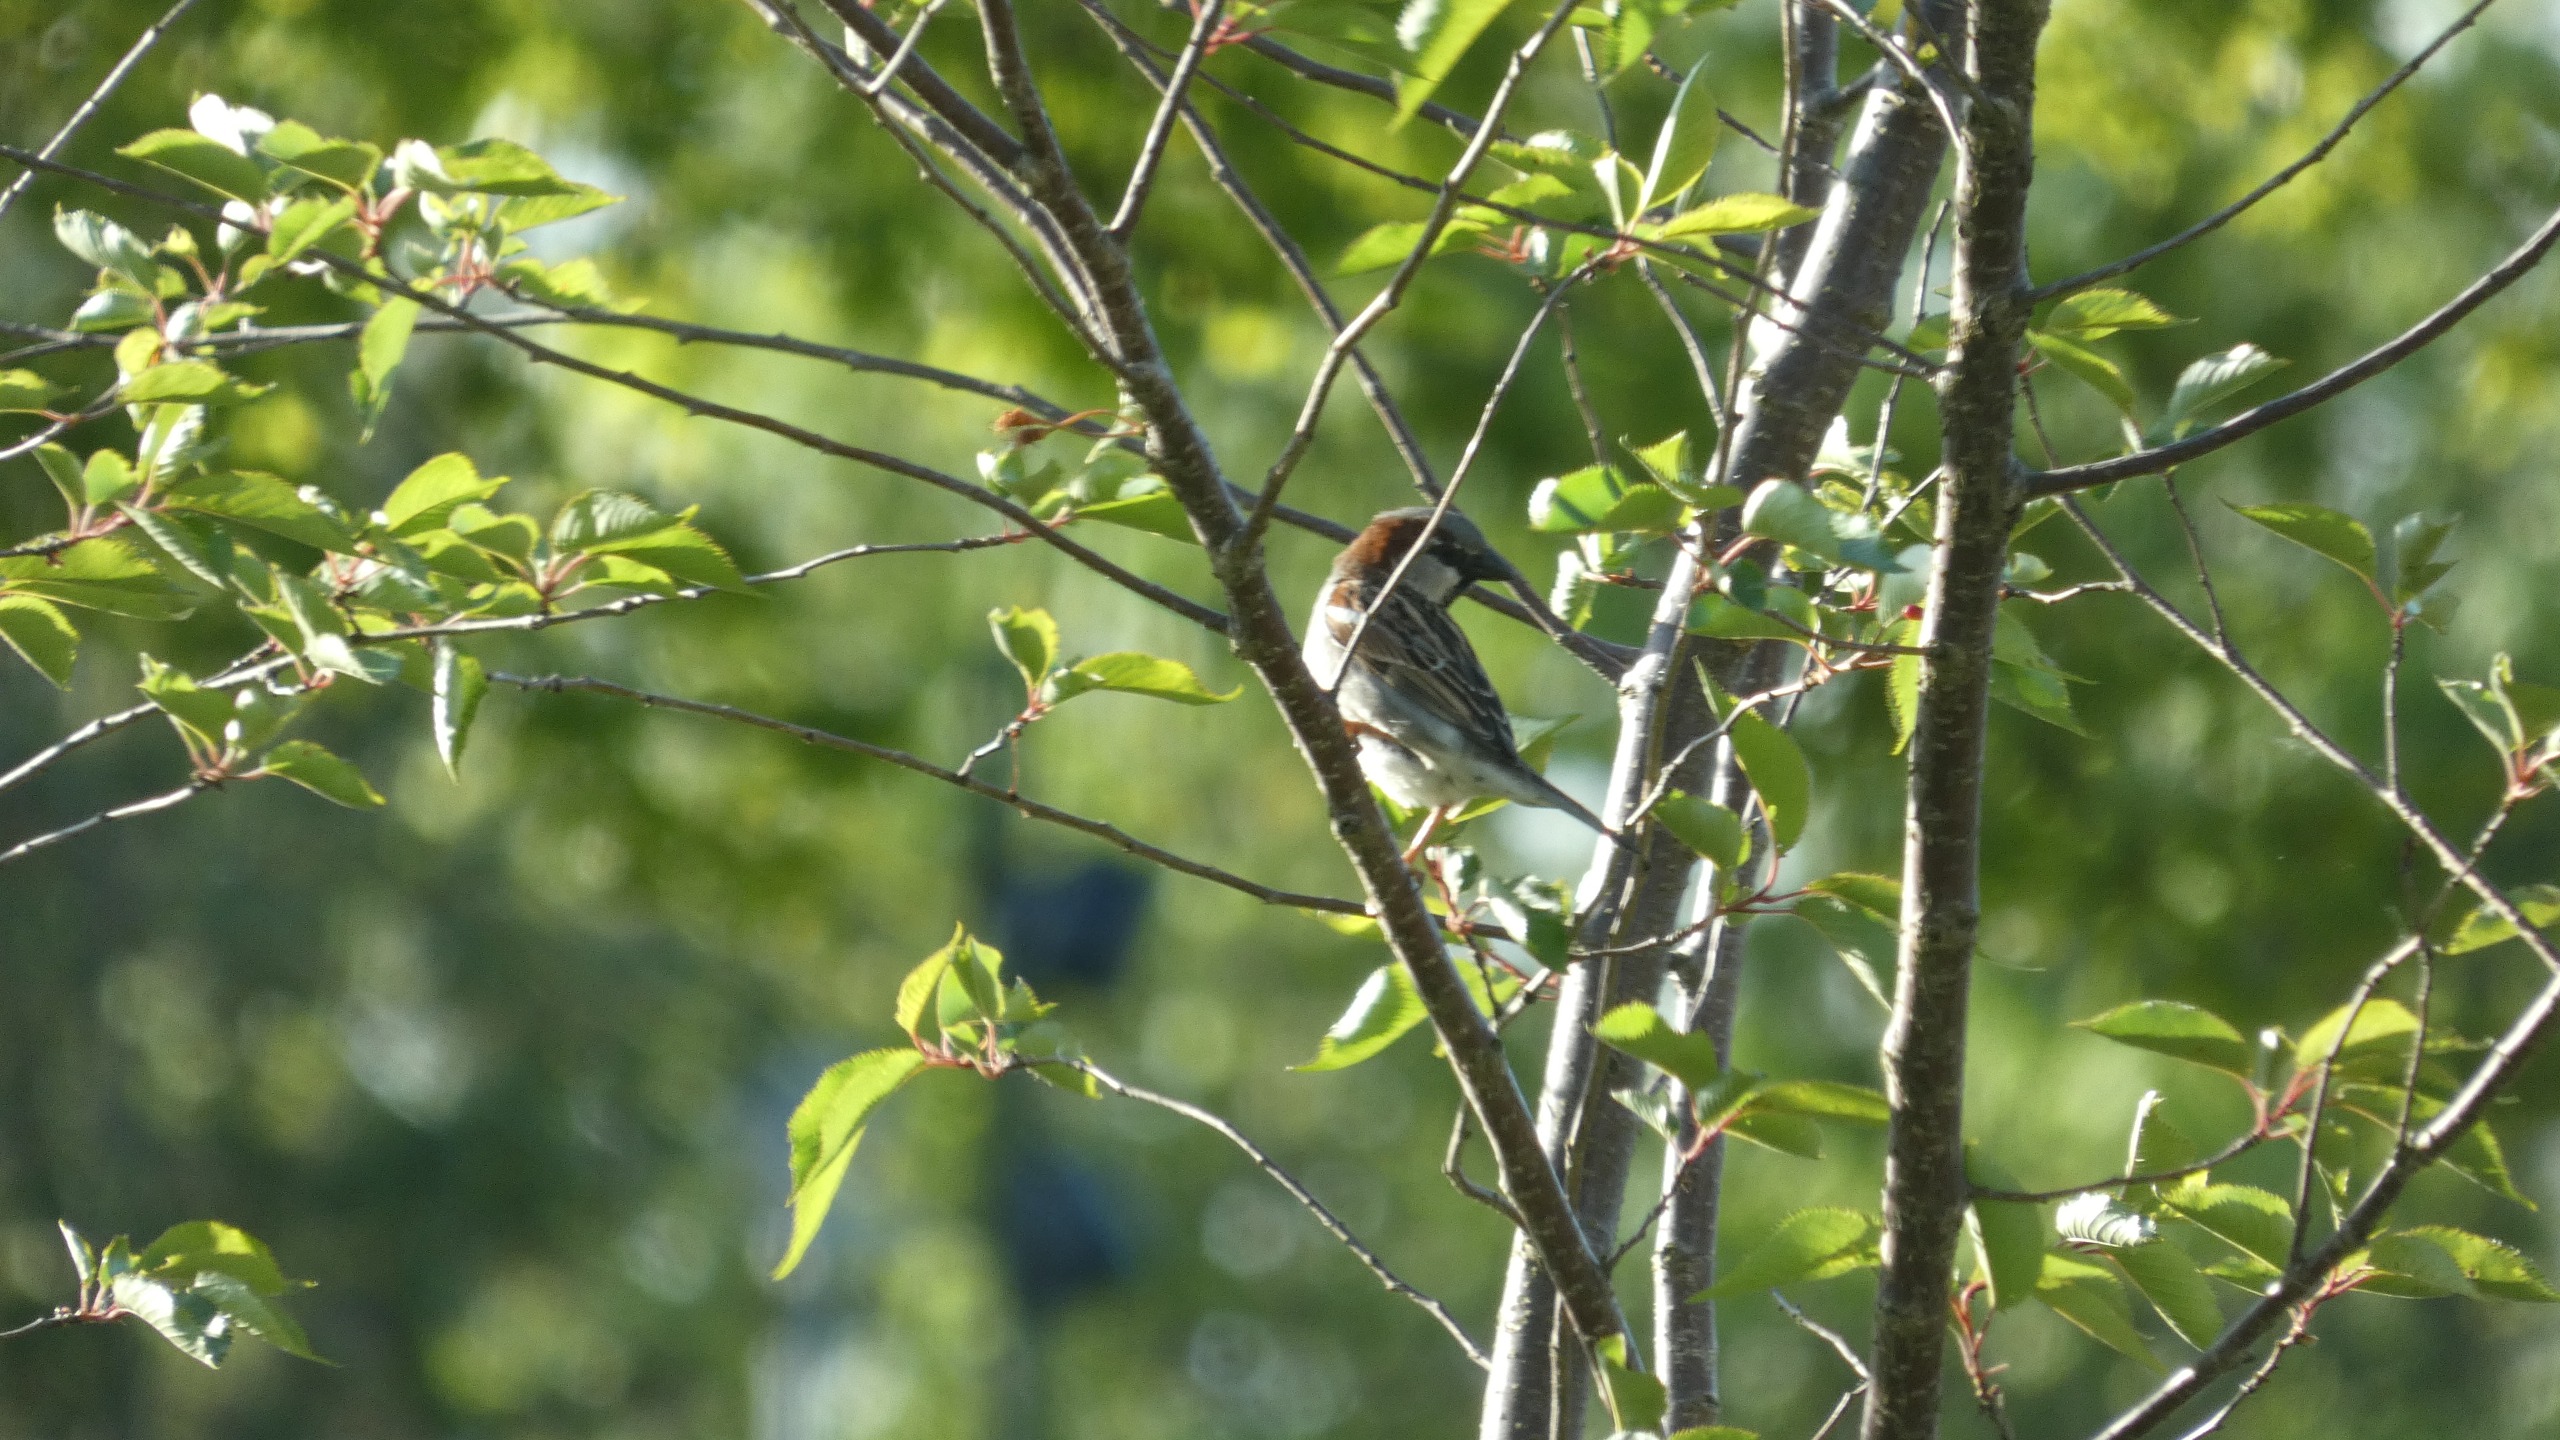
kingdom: Animalia
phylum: Chordata
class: Aves
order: Passeriformes
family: Passeridae
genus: Passer
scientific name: Passer domesticus
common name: Gråspurv
